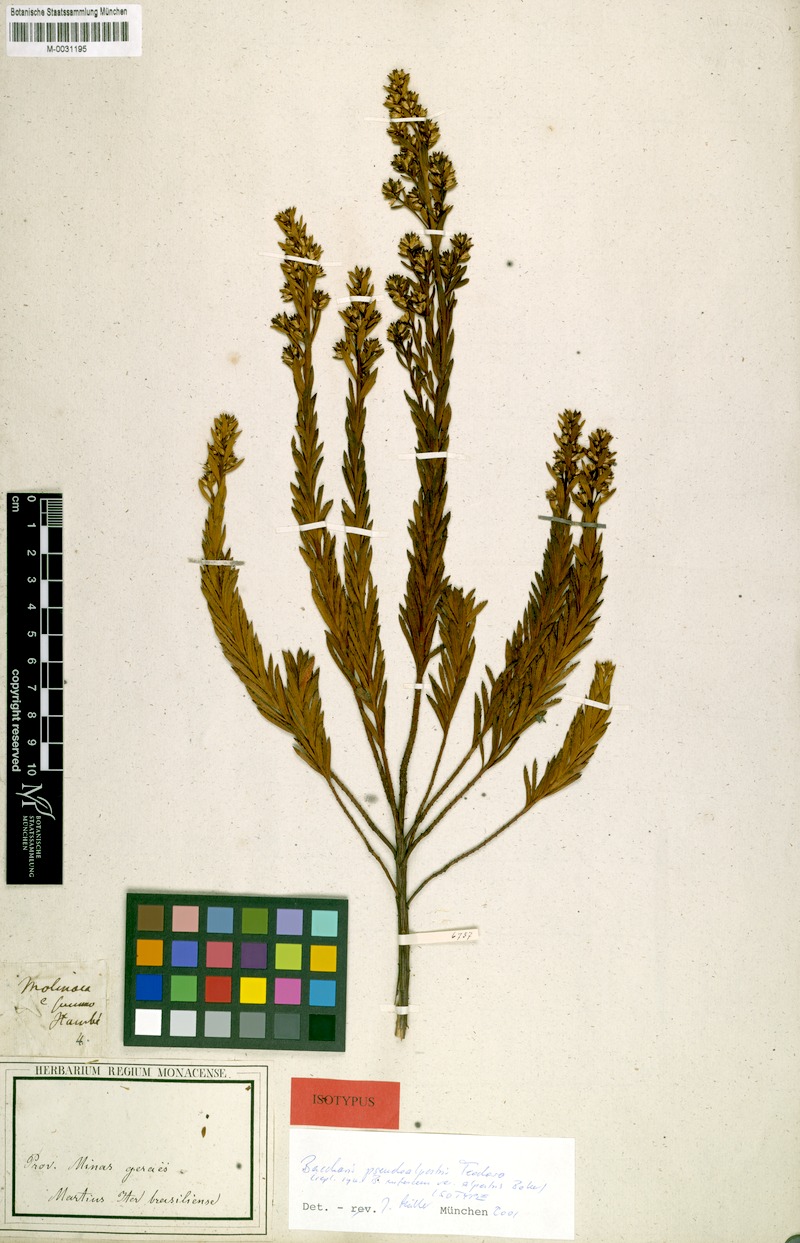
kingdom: Plantae
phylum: Tracheophyta
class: Magnoliopsida
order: Asterales
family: Asteraceae
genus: Baccharis
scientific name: Baccharis rufescens
